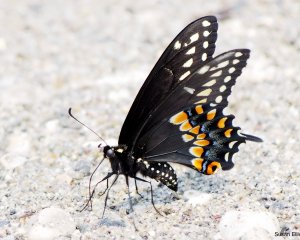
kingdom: Animalia
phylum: Arthropoda
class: Insecta
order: Lepidoptera
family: Papilionidae
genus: Papilio
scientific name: Papilio polyxenes
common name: Black Swallowtail
